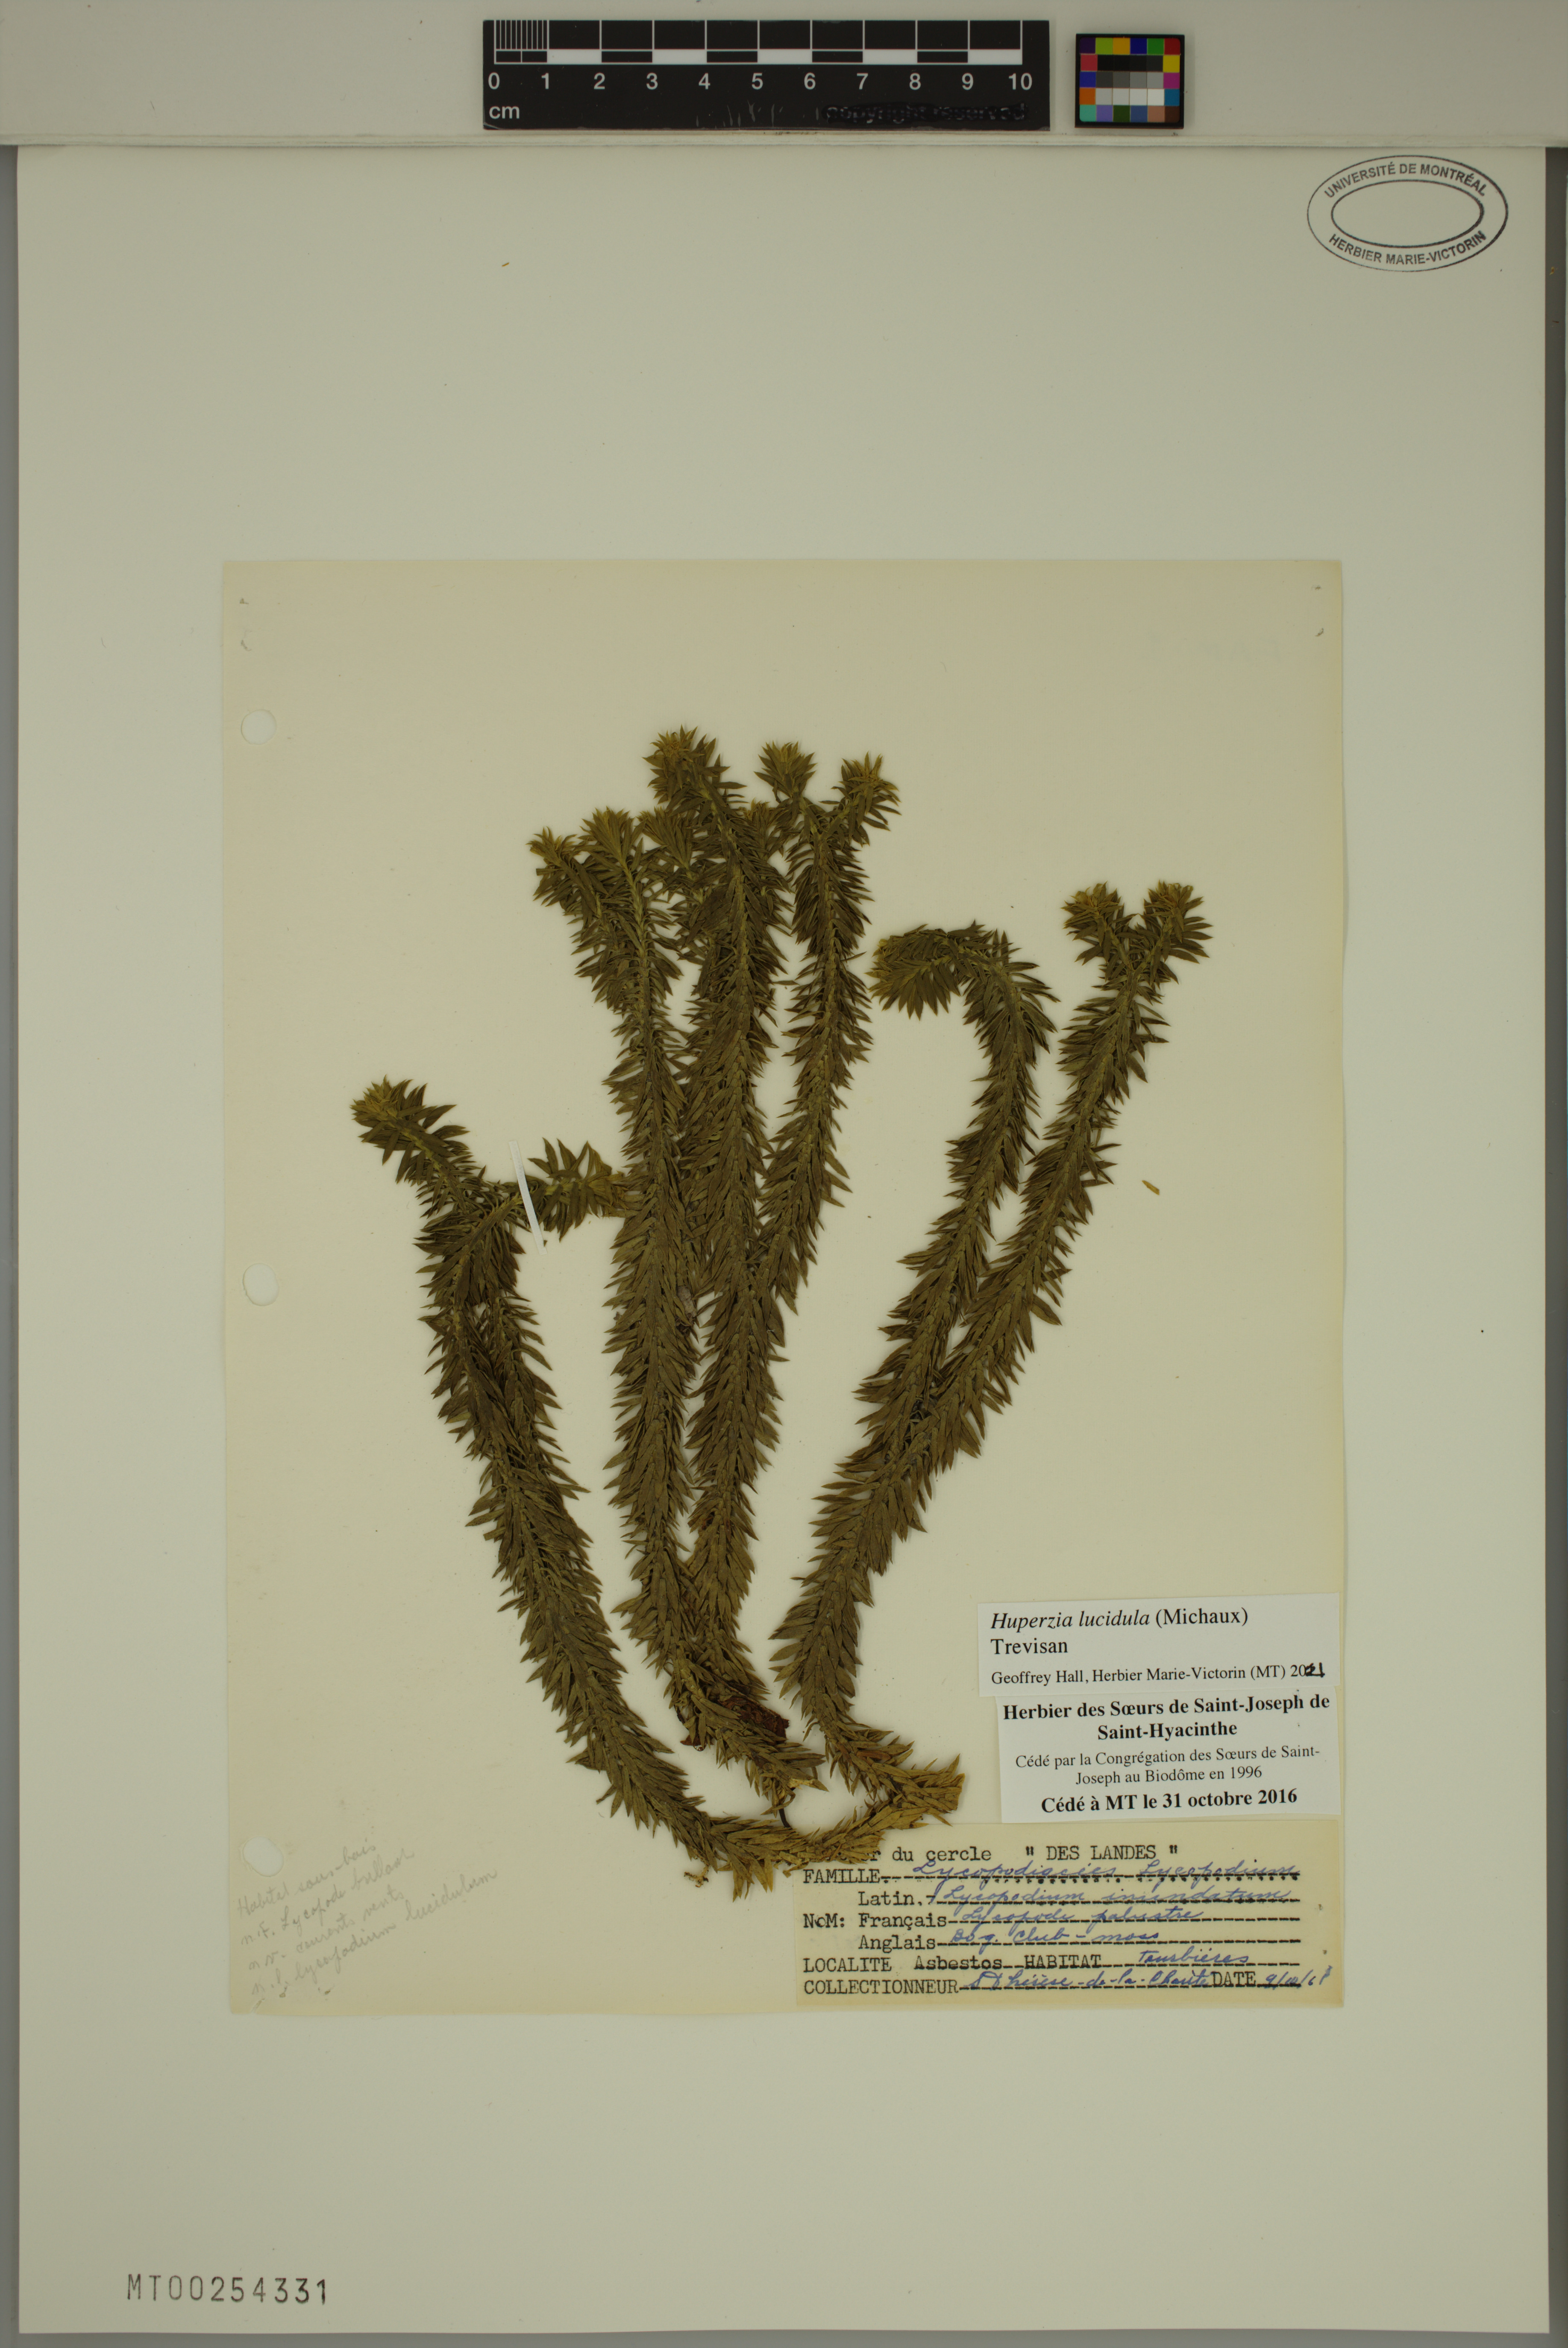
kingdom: Plantae
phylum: Tracheophyta
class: Lycopodiopsida
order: Lycopodiales
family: Lycopodiaceae
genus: Huperzia
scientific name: Huperzia lucidula
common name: Shining clubmoss
